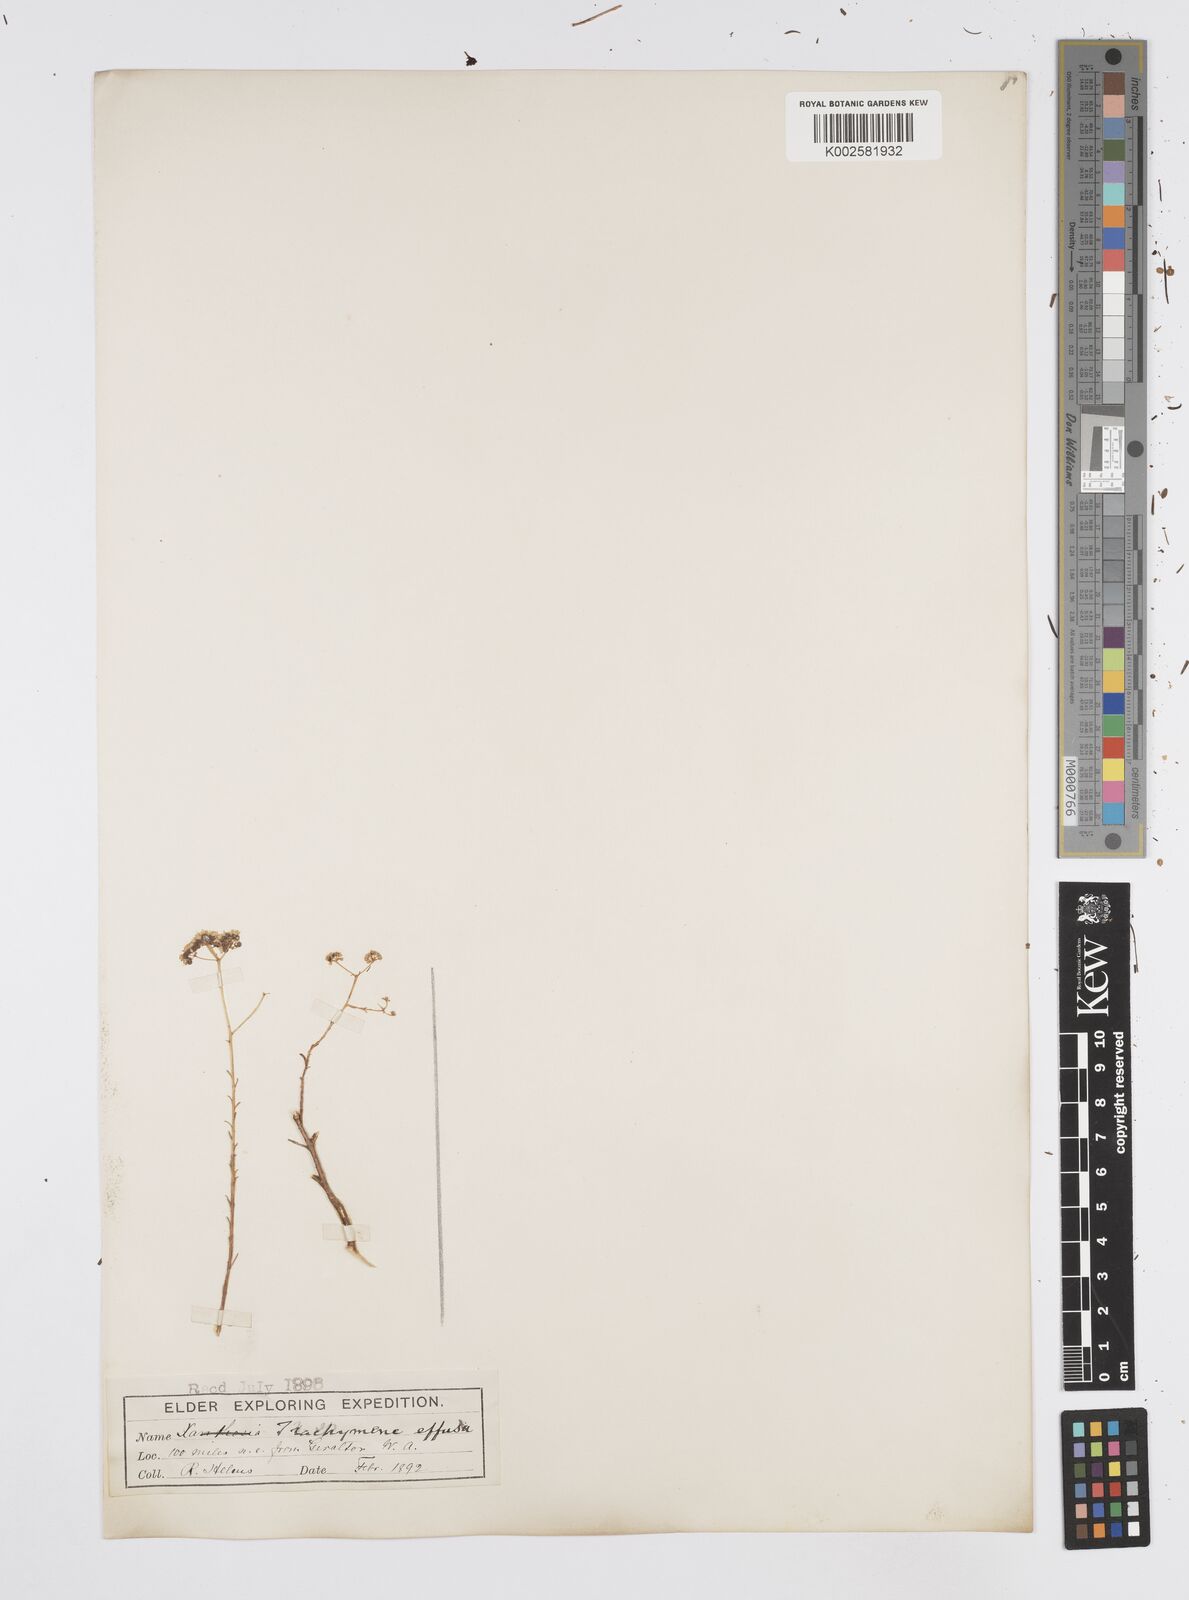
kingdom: Plantae
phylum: Tracheophyta
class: Magnoliopsida
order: Apiales
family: Apiaceae
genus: Platysace
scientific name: Platysace effusa
